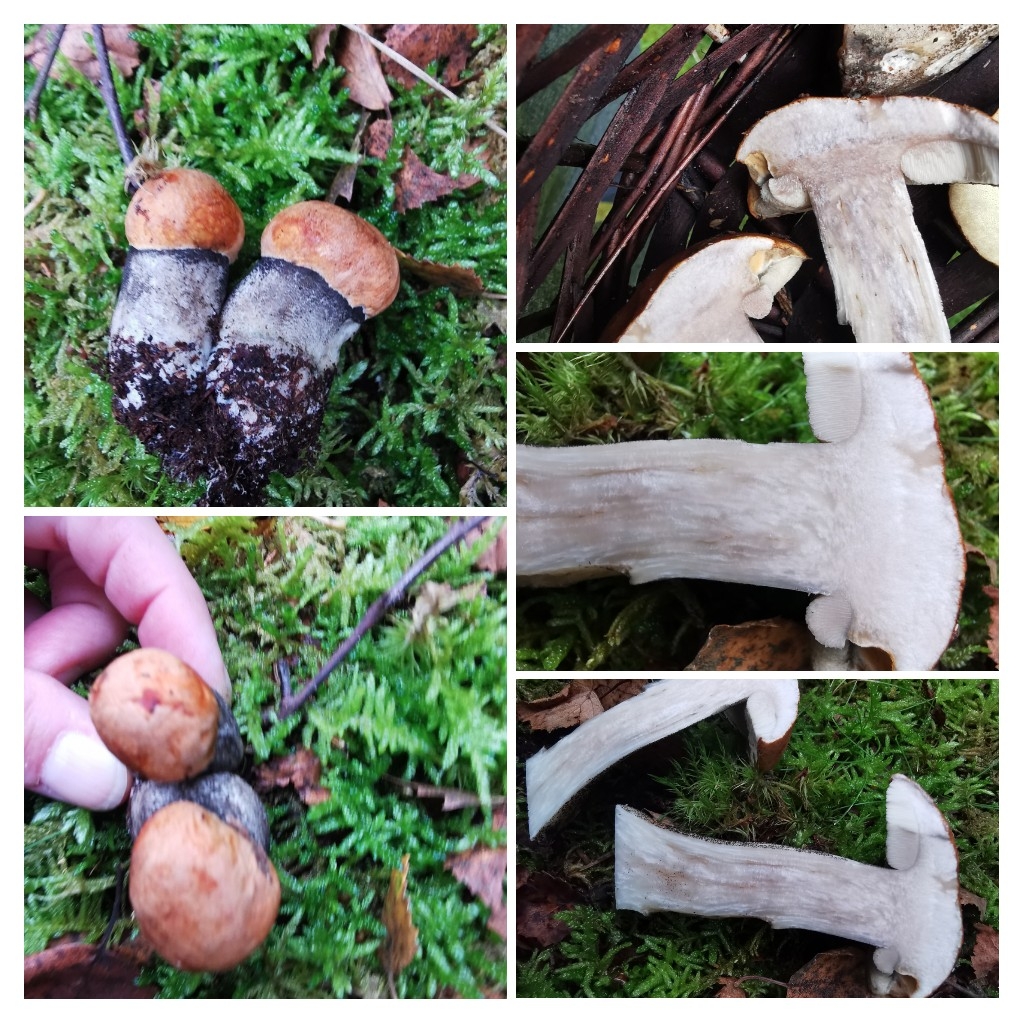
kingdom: Fungi
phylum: Basidiomycota
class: Agaricomycetes
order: Boletales
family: Boletaceae
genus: Leccinum
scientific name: Leccinum versipelle
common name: orange skælrørhat
